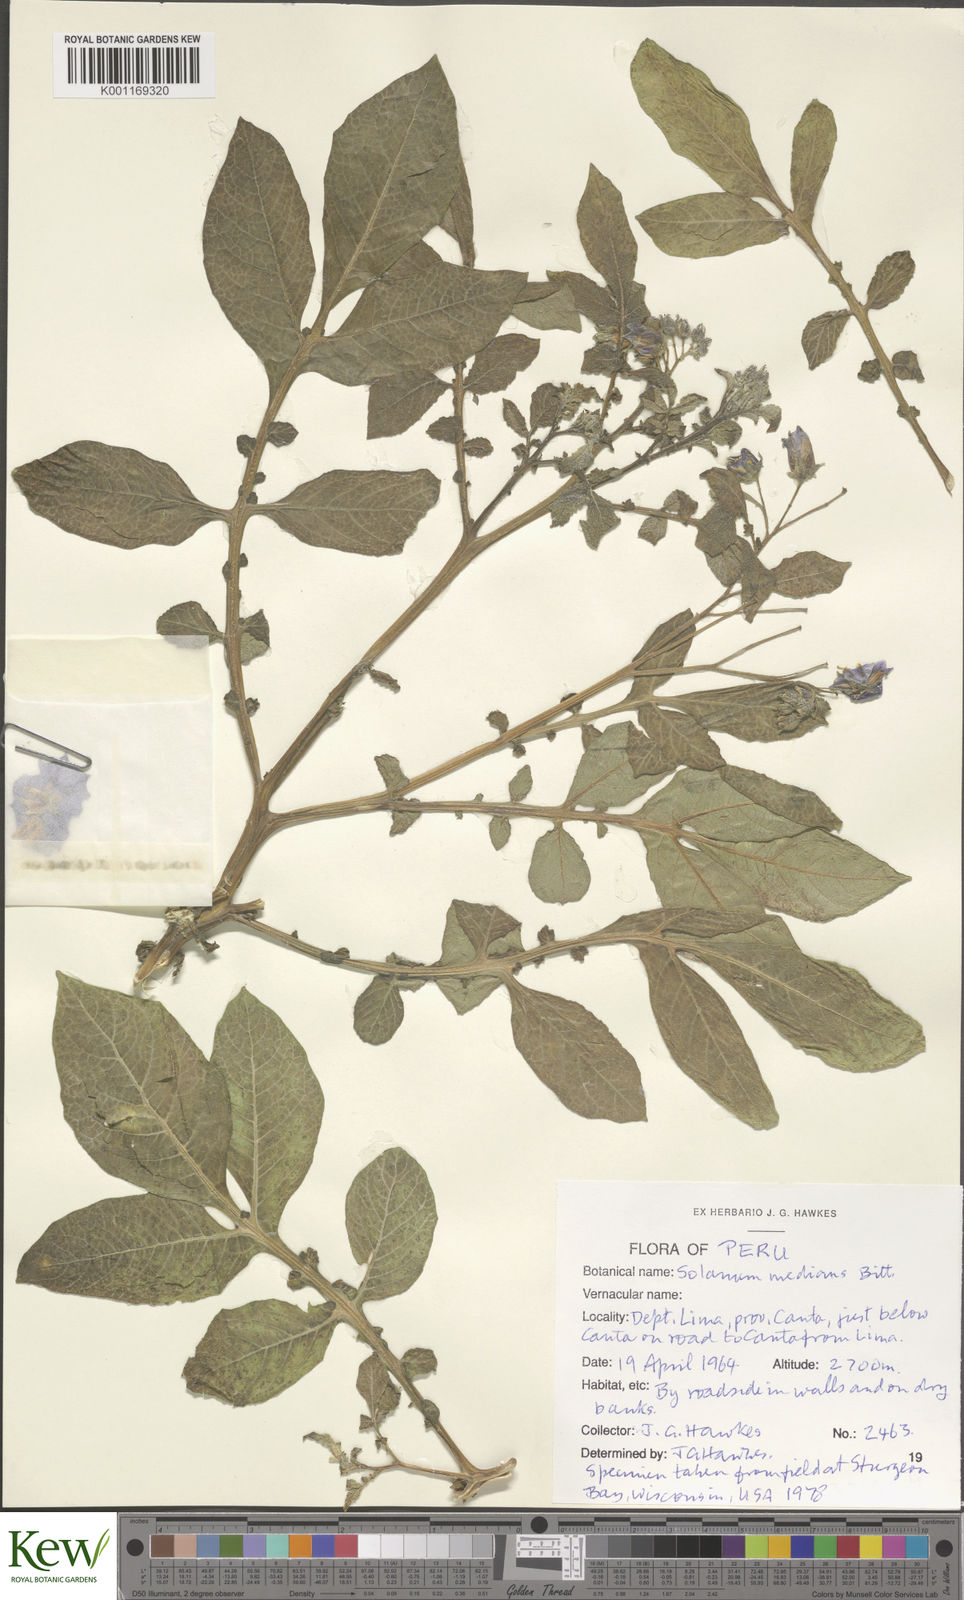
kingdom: Plantae
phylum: Tracheophyta
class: Magnoliopsida
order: Solanales
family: Solanaceae
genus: Solanum
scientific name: Solanum medians
